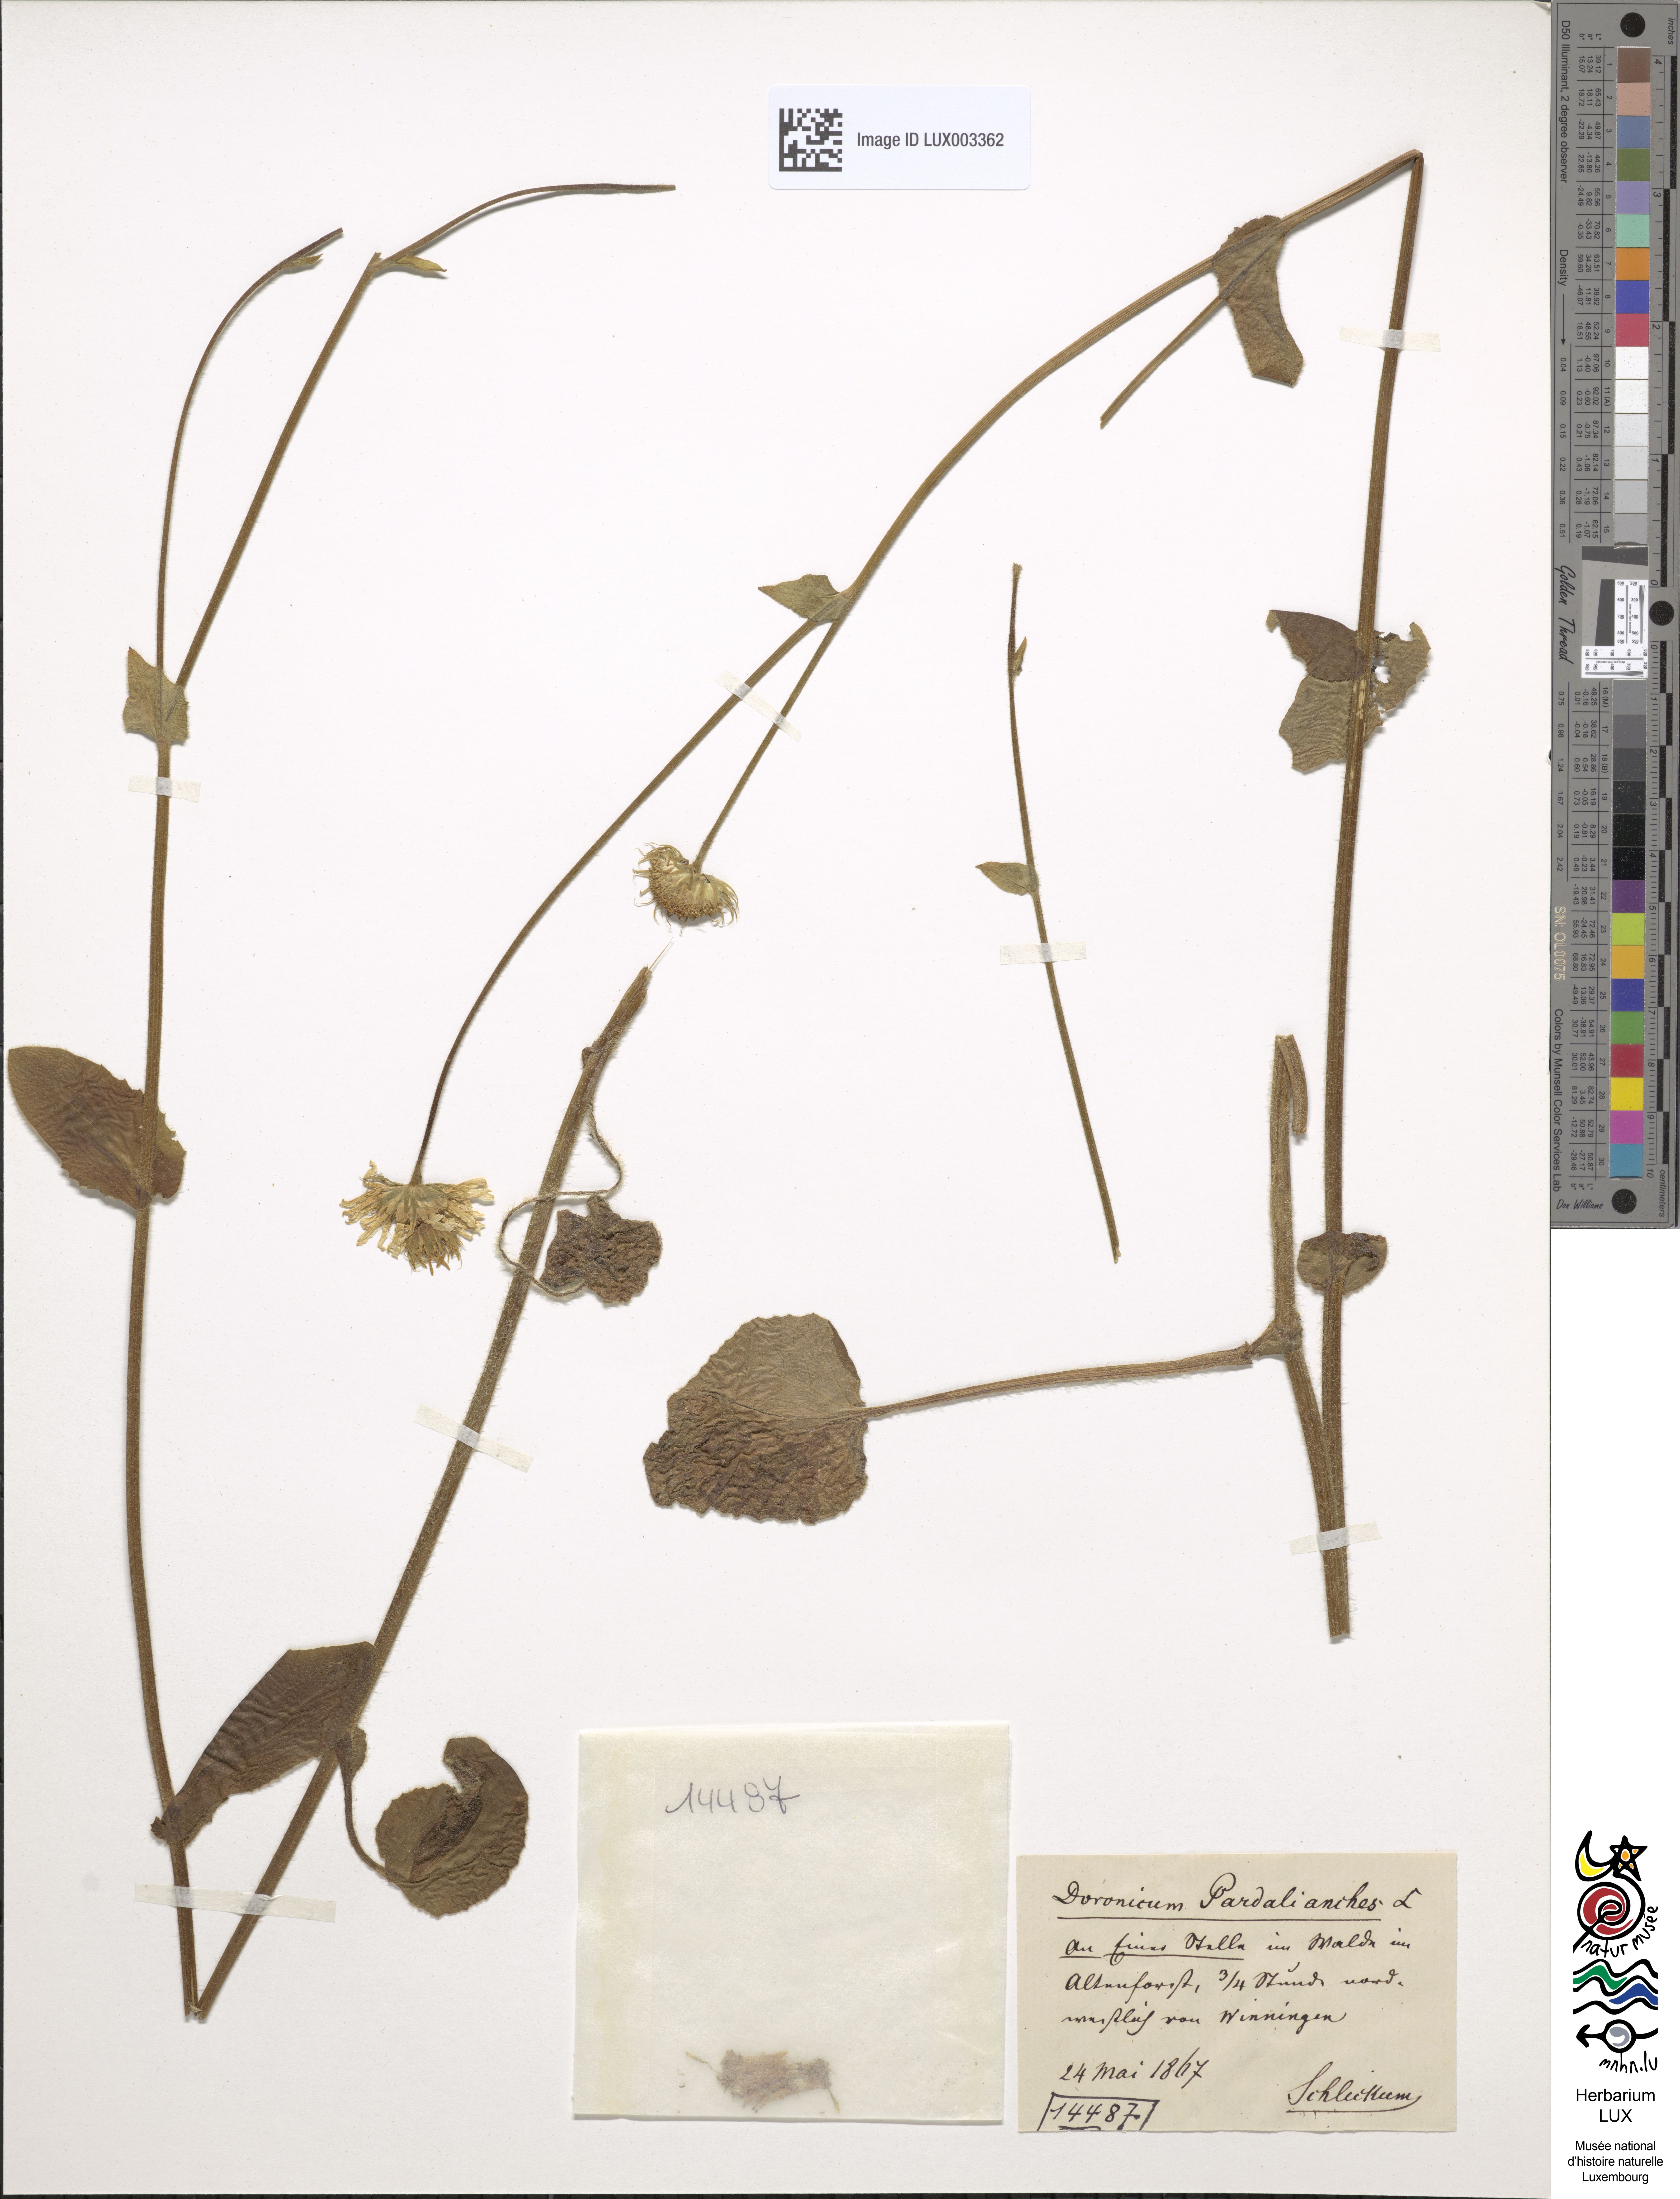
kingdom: Plantae
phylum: Tracheophyta
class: Magnoliopsida
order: Asterales
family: Asteraceae
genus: Doronicum
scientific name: Doronicum pardalianches
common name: Leopard's-bane
